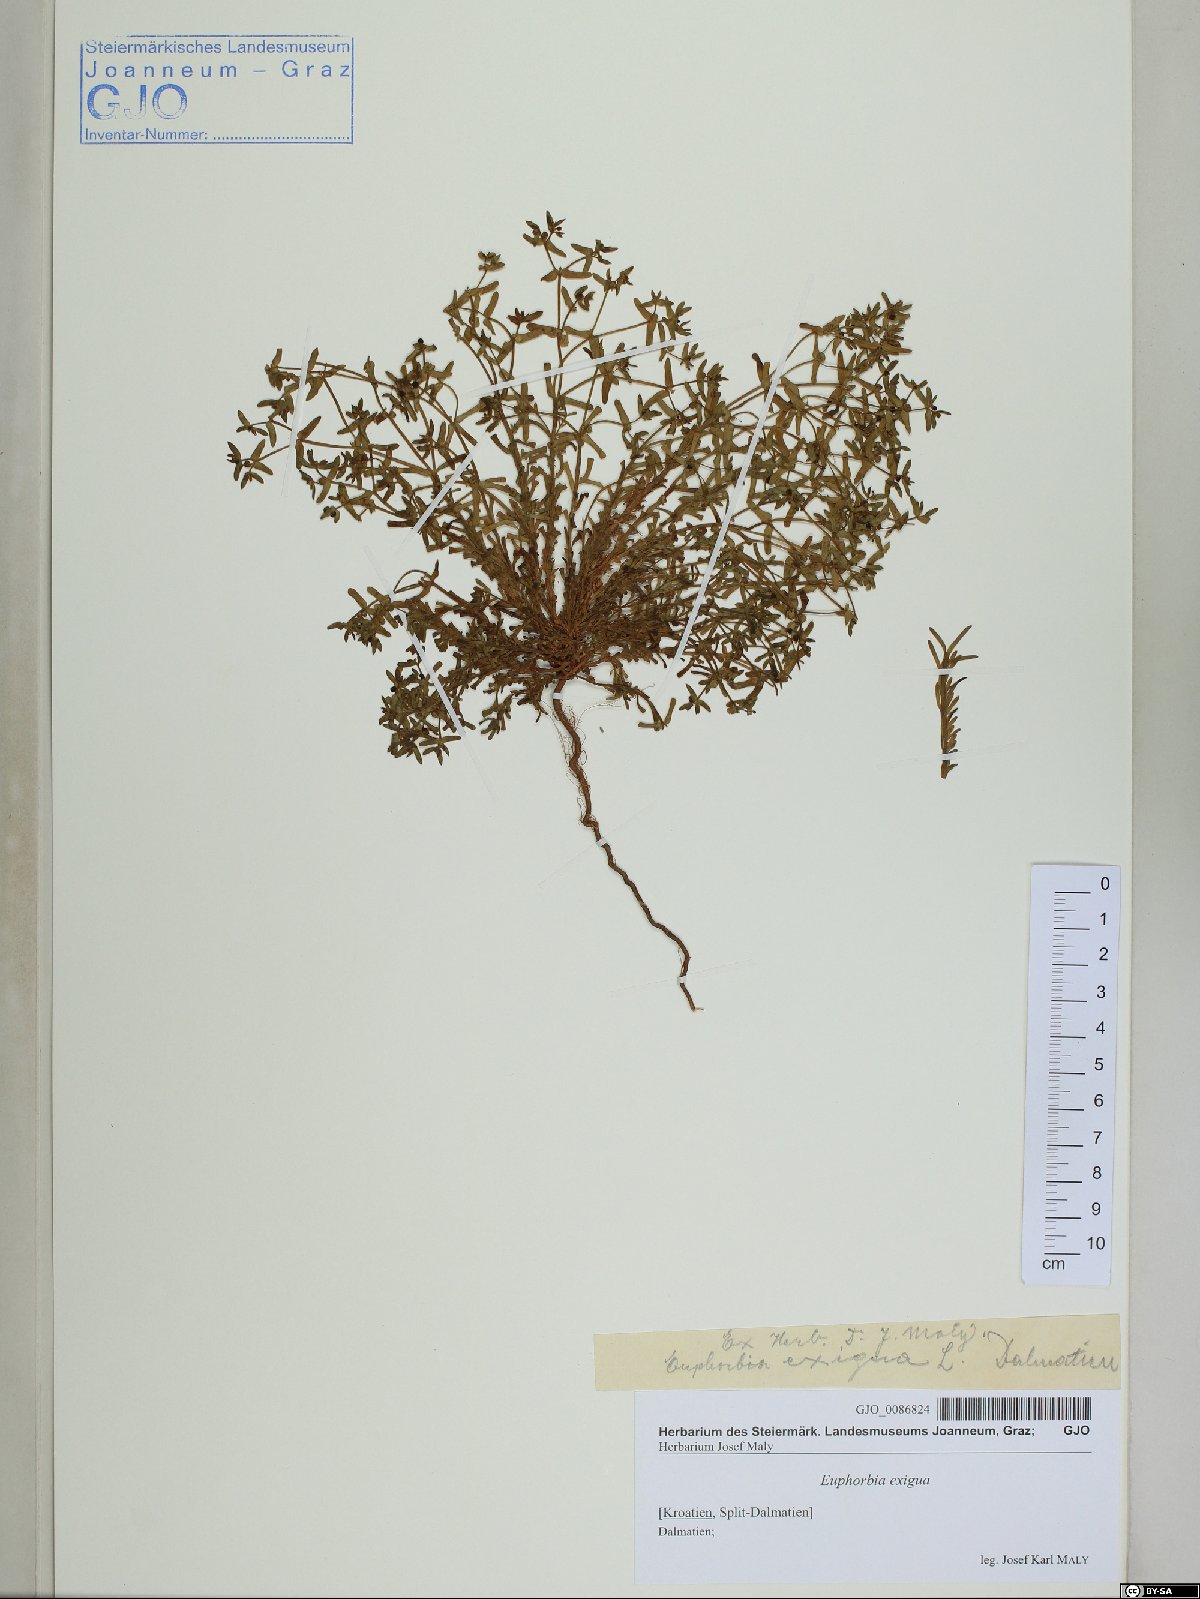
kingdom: Plantae
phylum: Tracheophyta
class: Magnoliopsida
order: Malpighiales
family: Euphorbiaceae
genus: Euphorbia
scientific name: Euphorbia exigua
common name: Dwarf spurge
